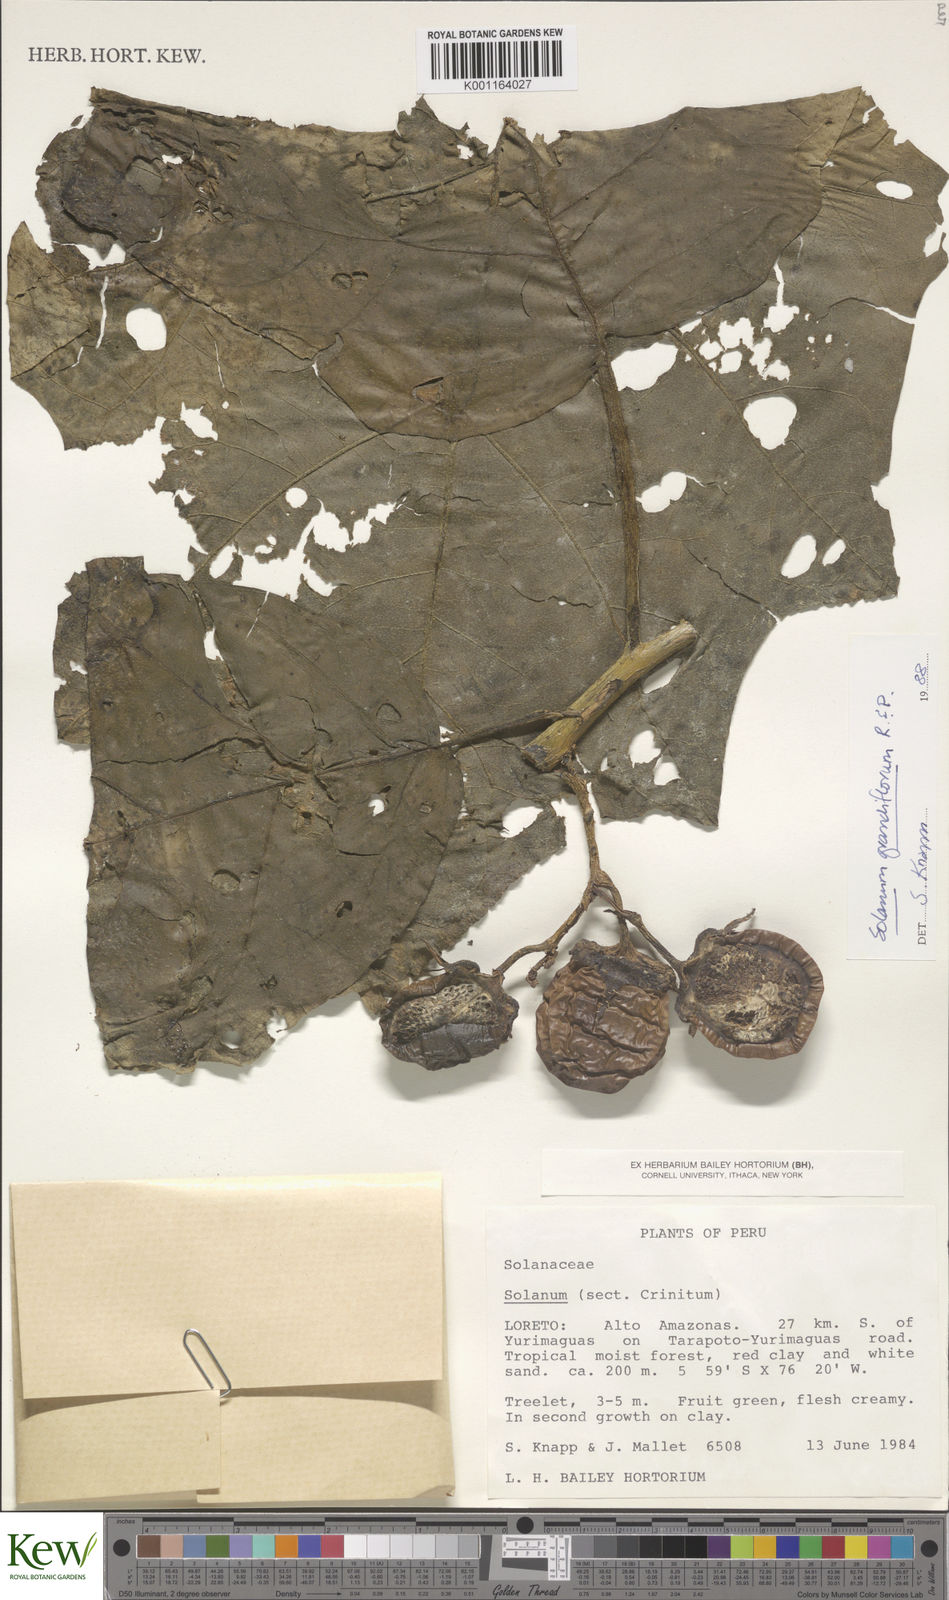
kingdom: Plantae
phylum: Tracheophyta
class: Magnoliopsida
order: Solanales
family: Solanaceae
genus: Solanum
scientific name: Solanum grandiflorum
